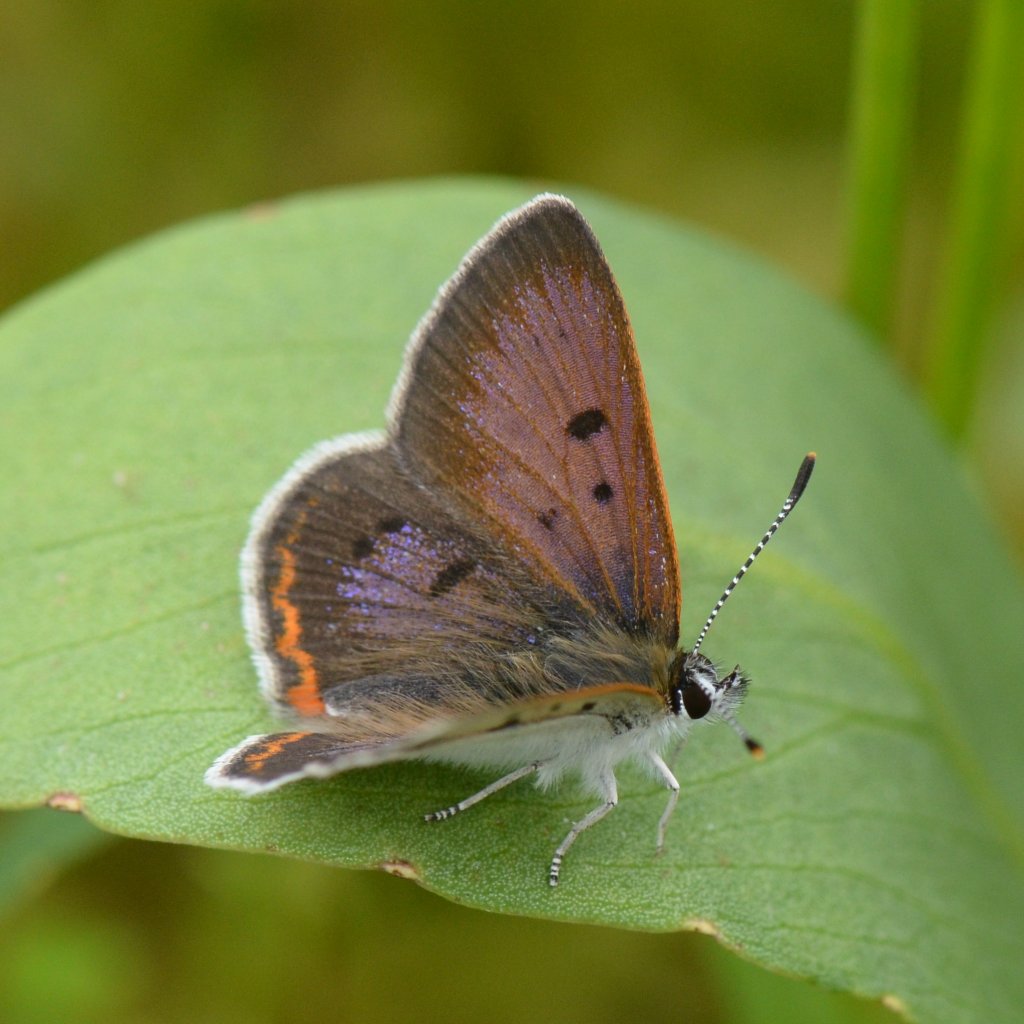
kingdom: Animalia
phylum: Arthropoda
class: Insecta
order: Lepidoptera
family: Sesiidae
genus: Sesia
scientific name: Sesia Lycaena epixanthe
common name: Bog Copper
